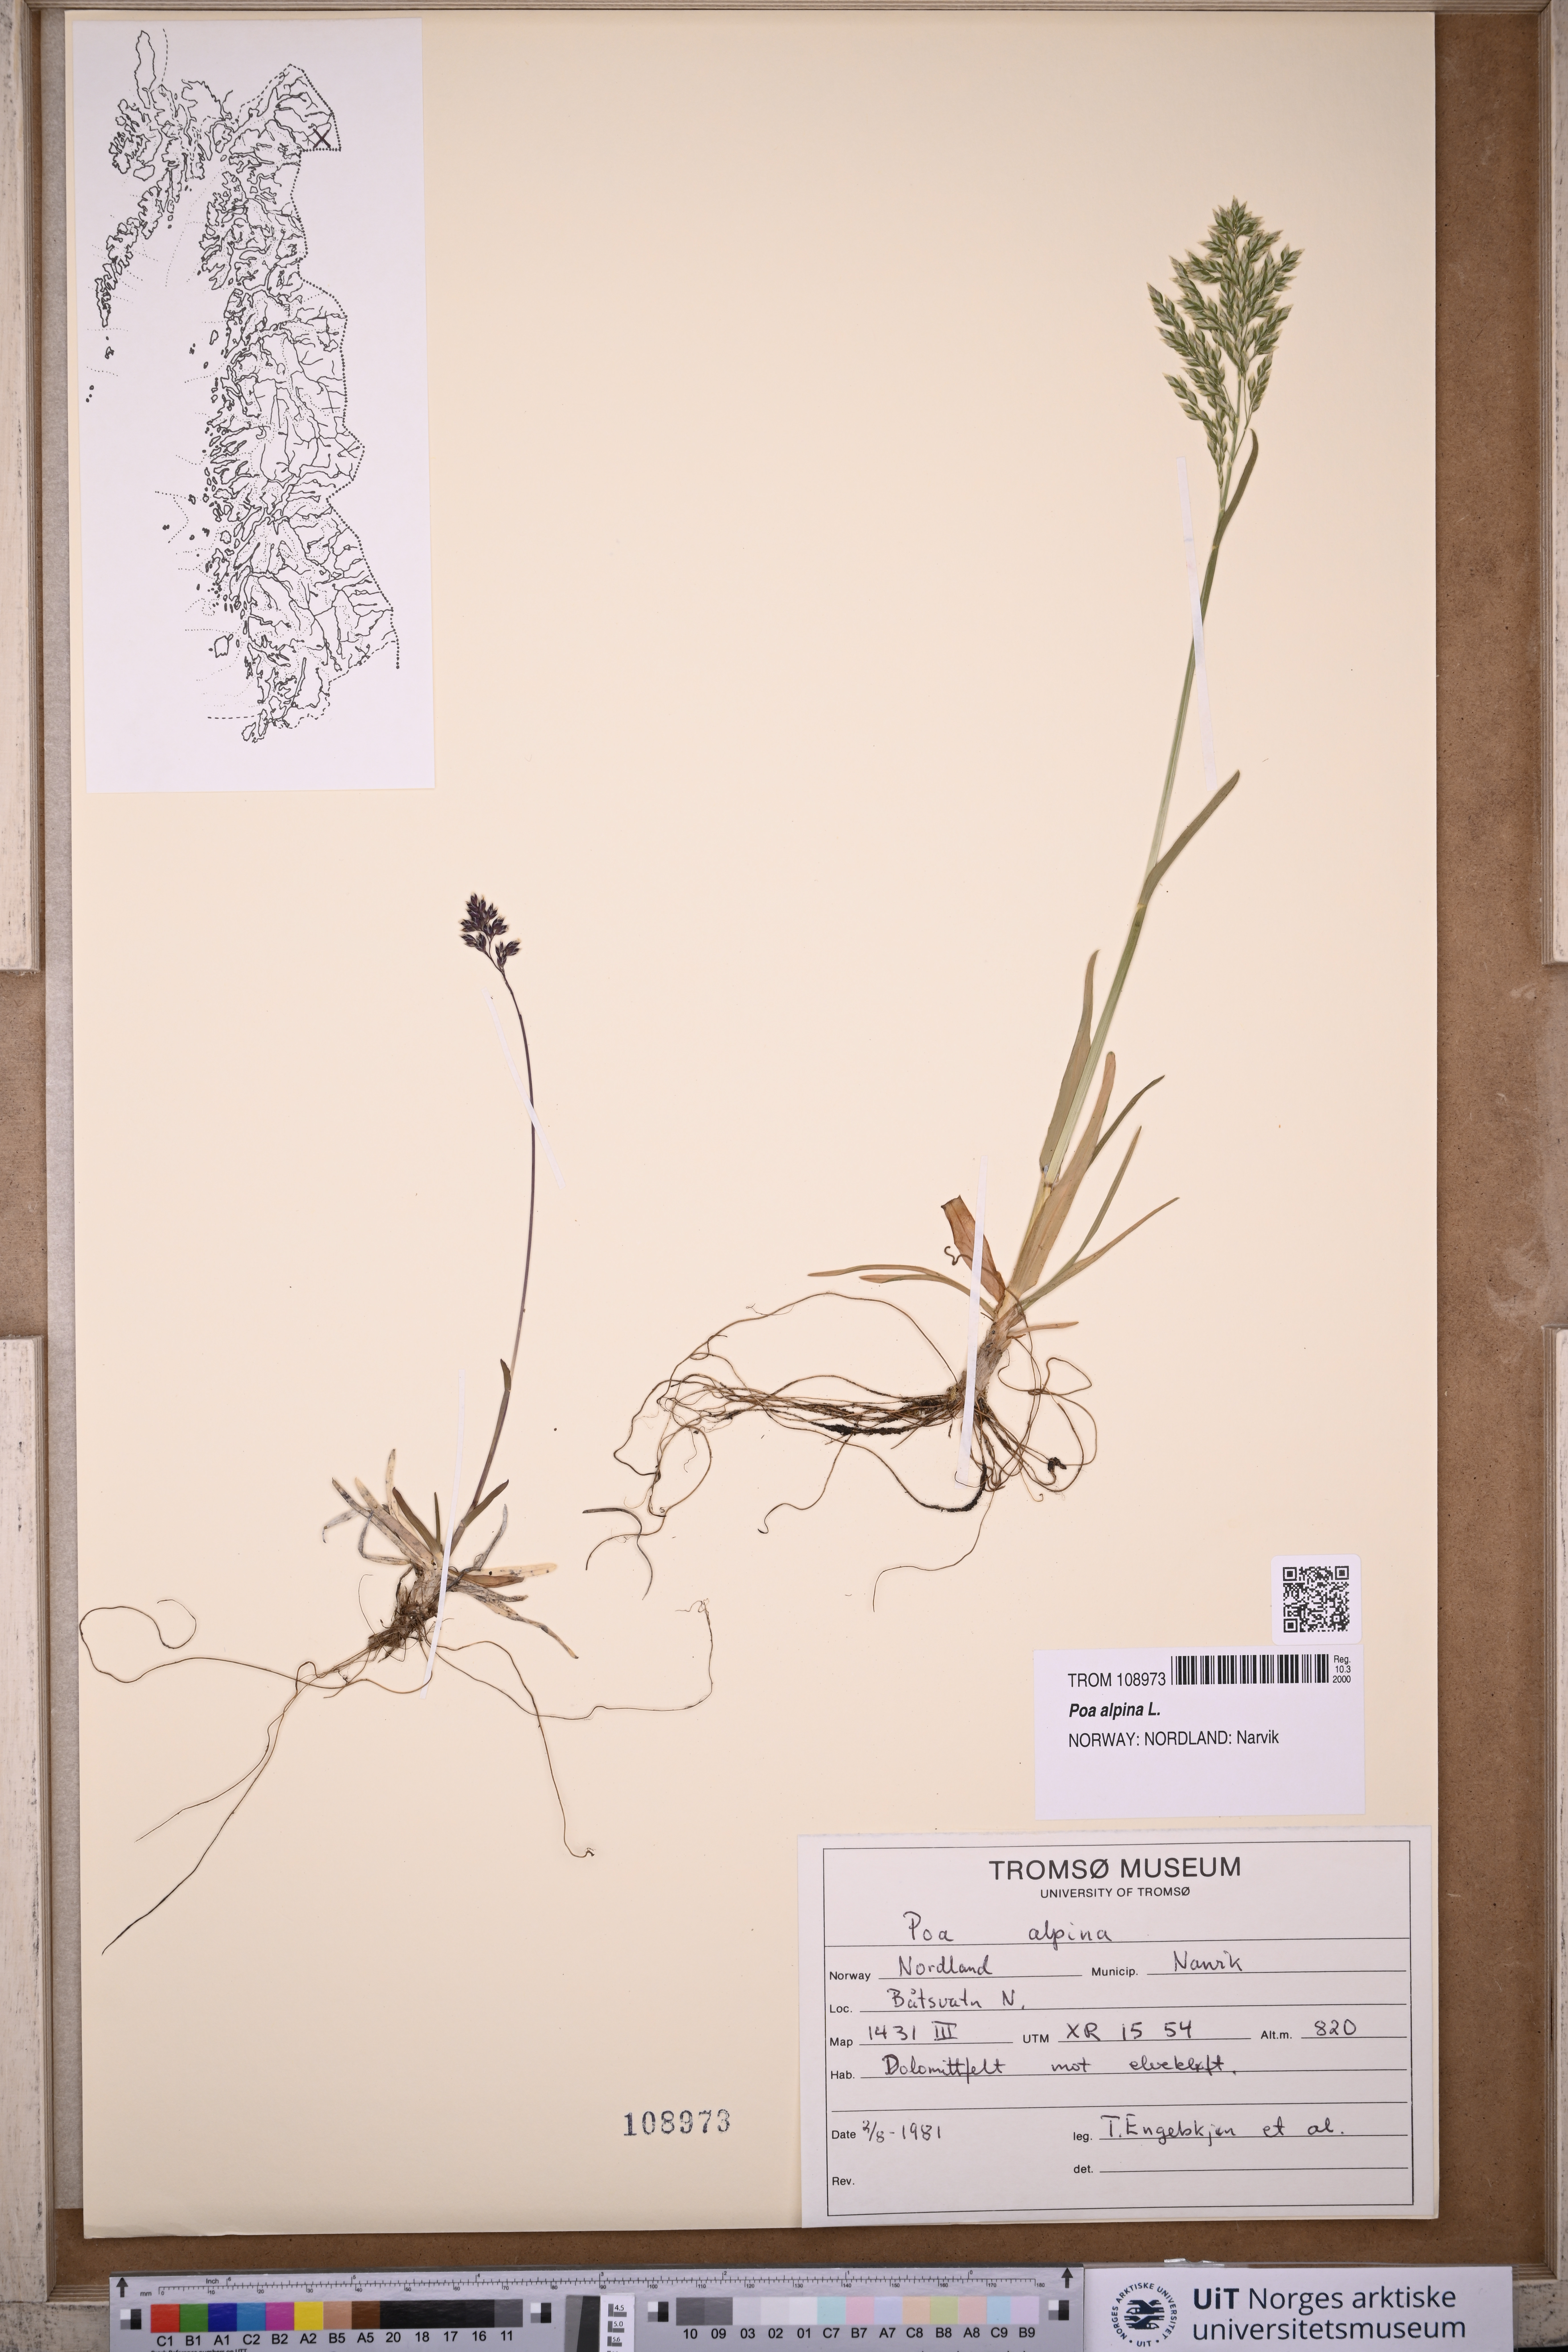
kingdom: Plantae
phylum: Tracheophyta
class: Liliopsida
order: Poales
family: Poaceae
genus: Poa
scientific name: Poa alpina
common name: Alpine bluegrass
